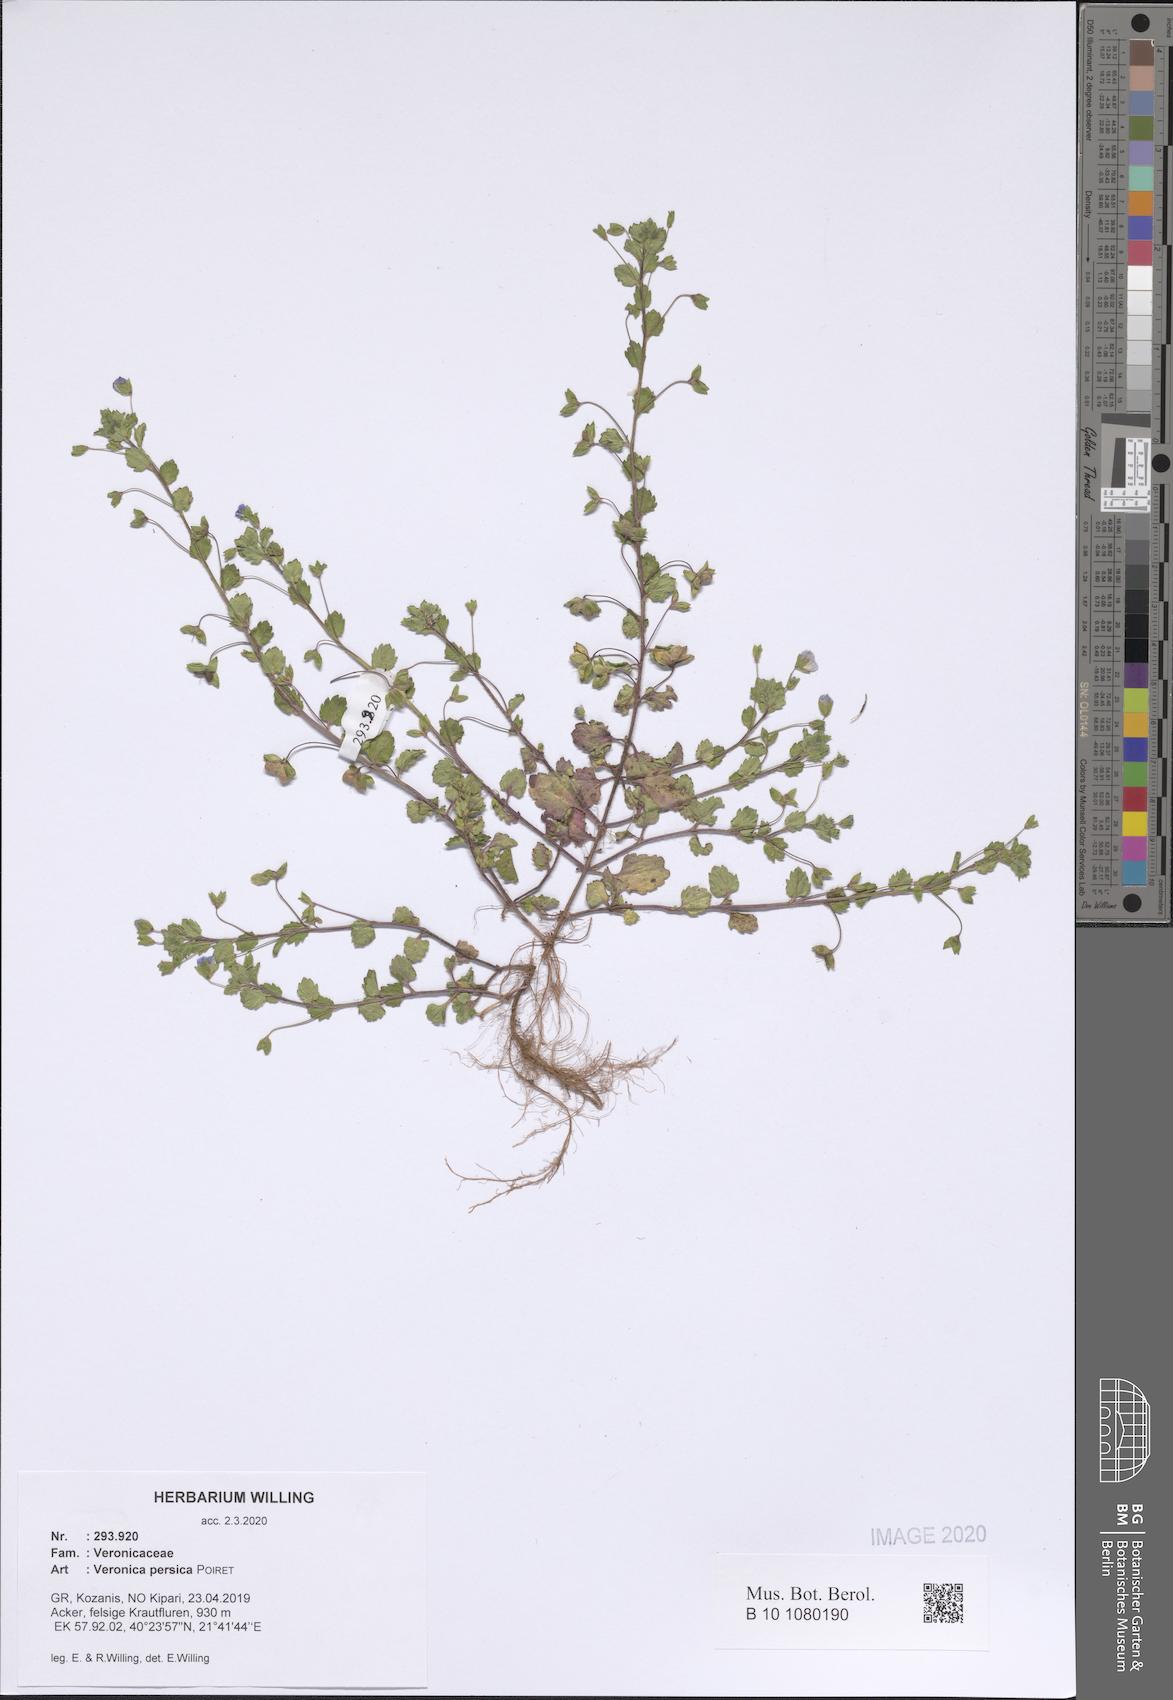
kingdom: Plantae
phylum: Tracheophyta
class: Magnoliopsida
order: Lamiales
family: Plantaginaceae
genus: Veronica
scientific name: Veronica persica
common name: Common field-speedwell
